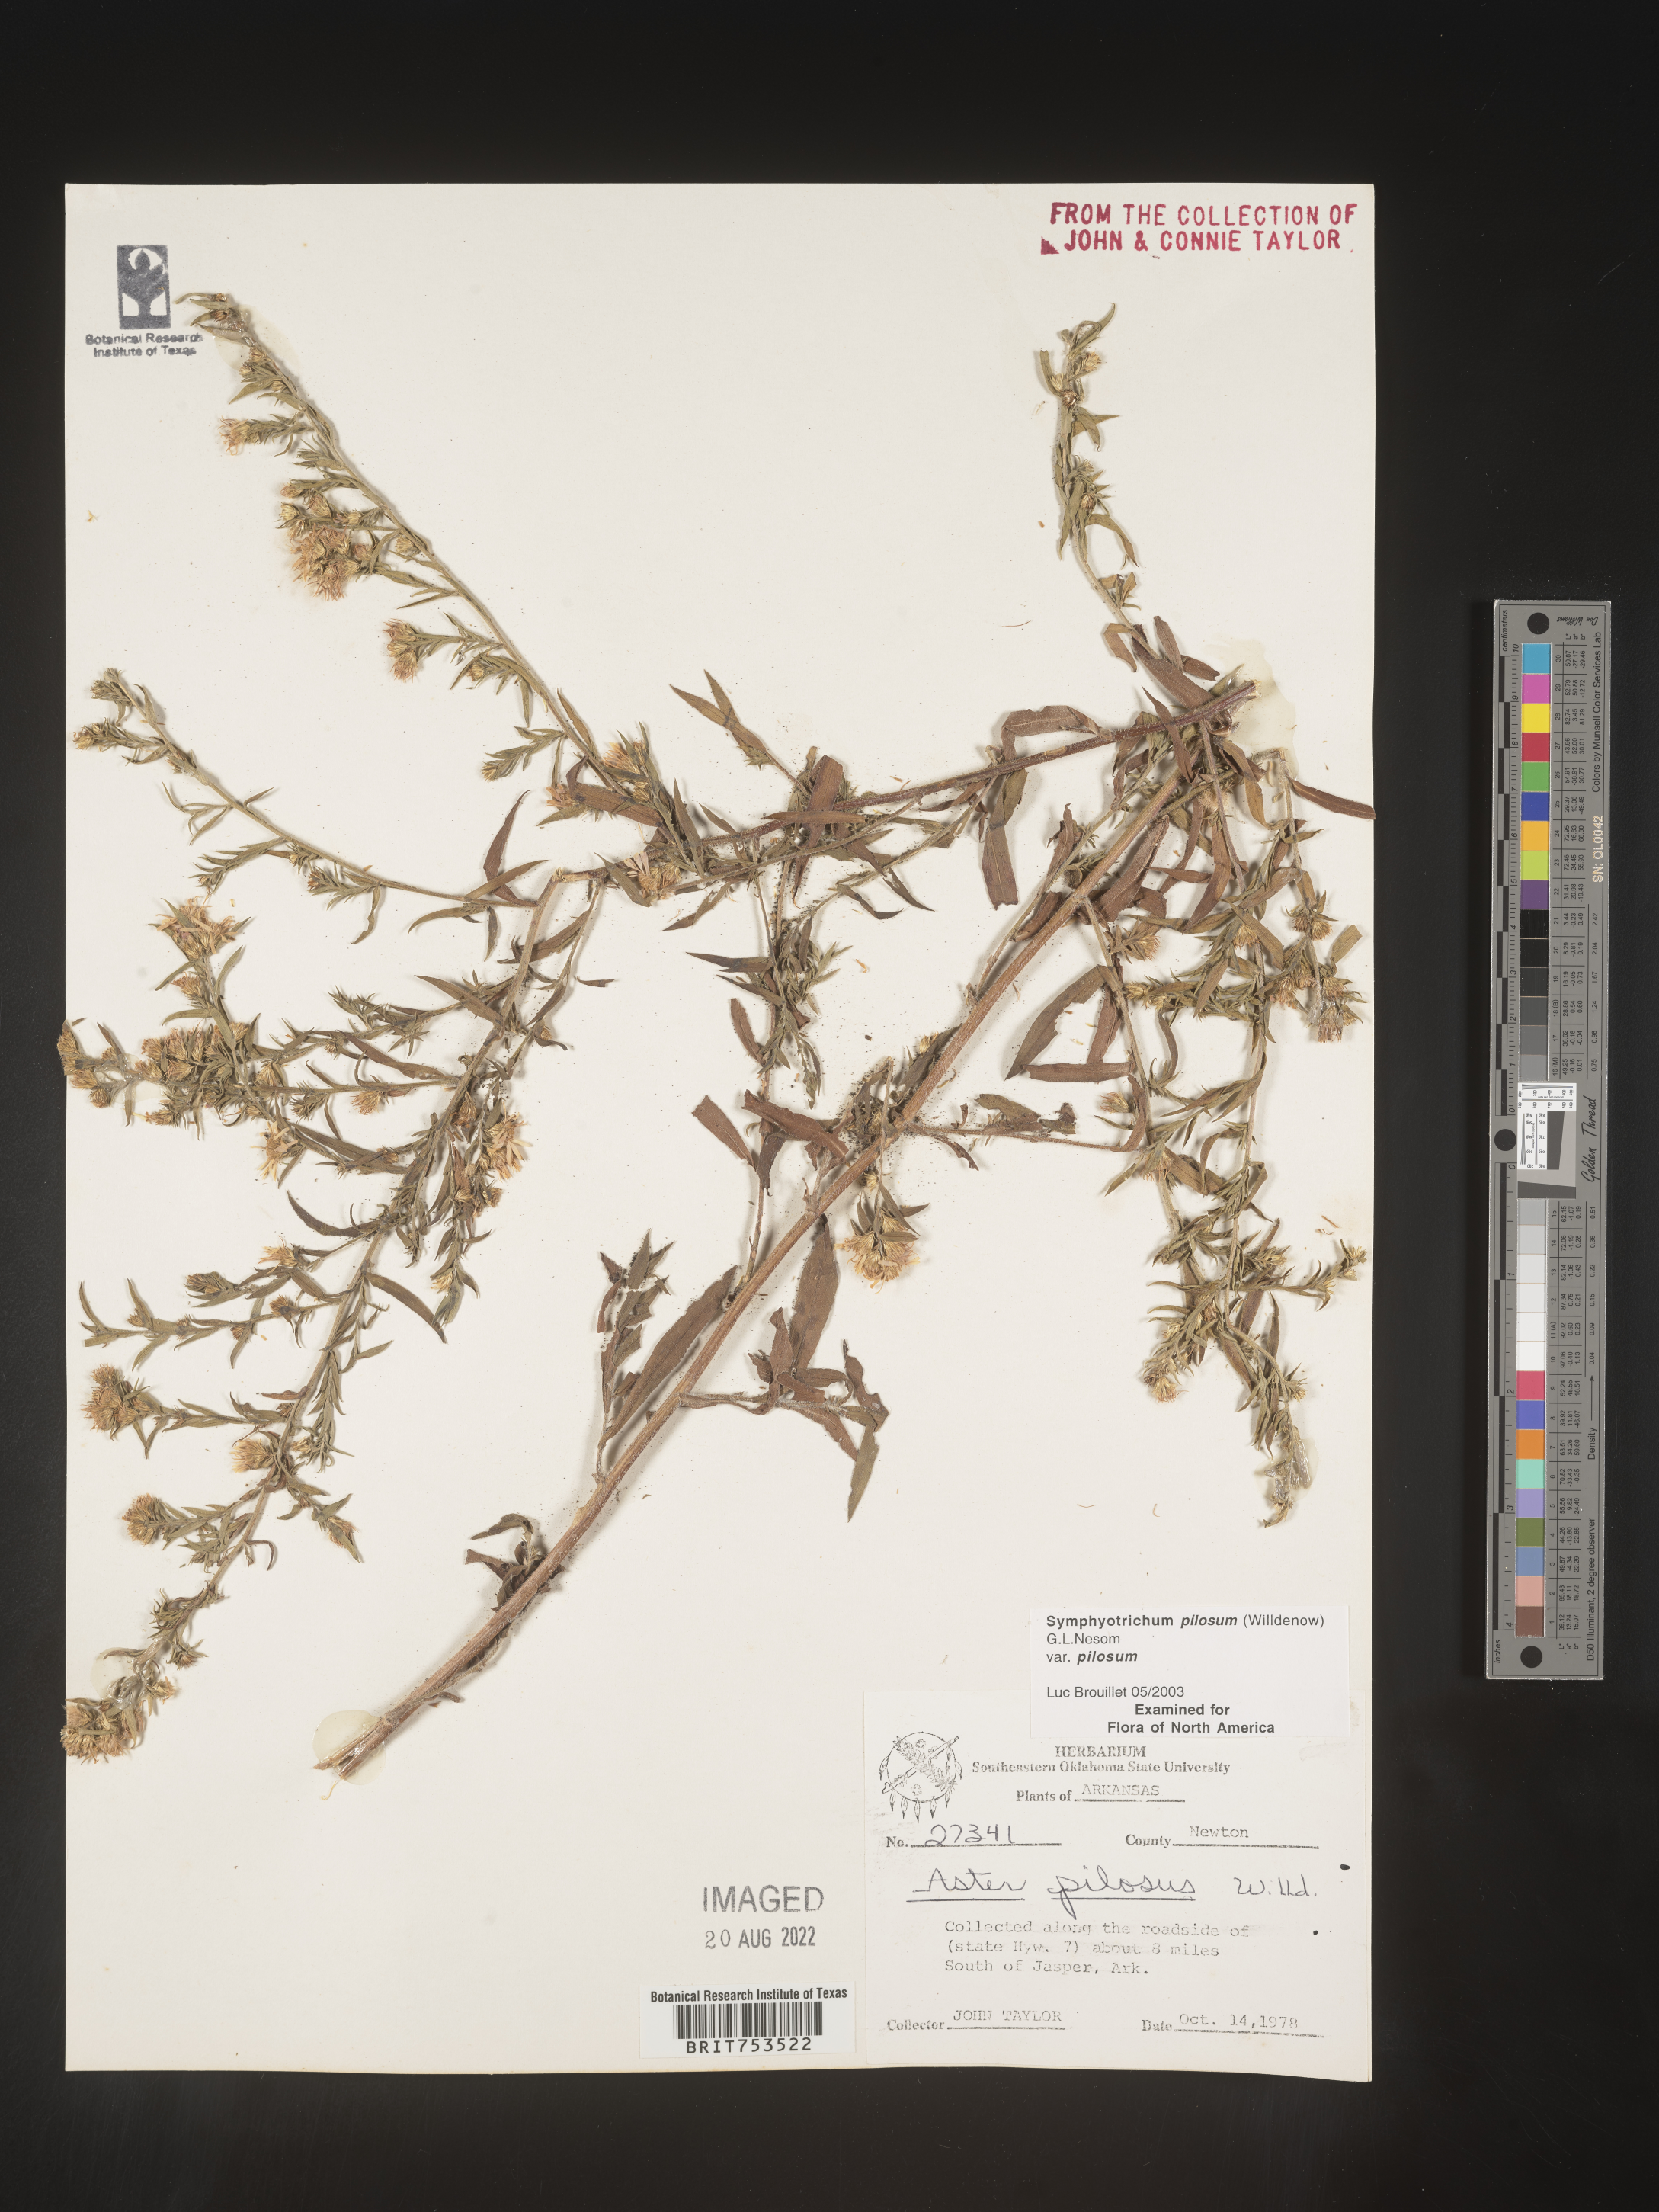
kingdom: Plantae
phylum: Tracheophyta
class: Magnoliopsida
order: Asterales
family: Asteraceae
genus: Symphyotrichum
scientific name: Symphyotrichum pilosum
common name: Awl aster
